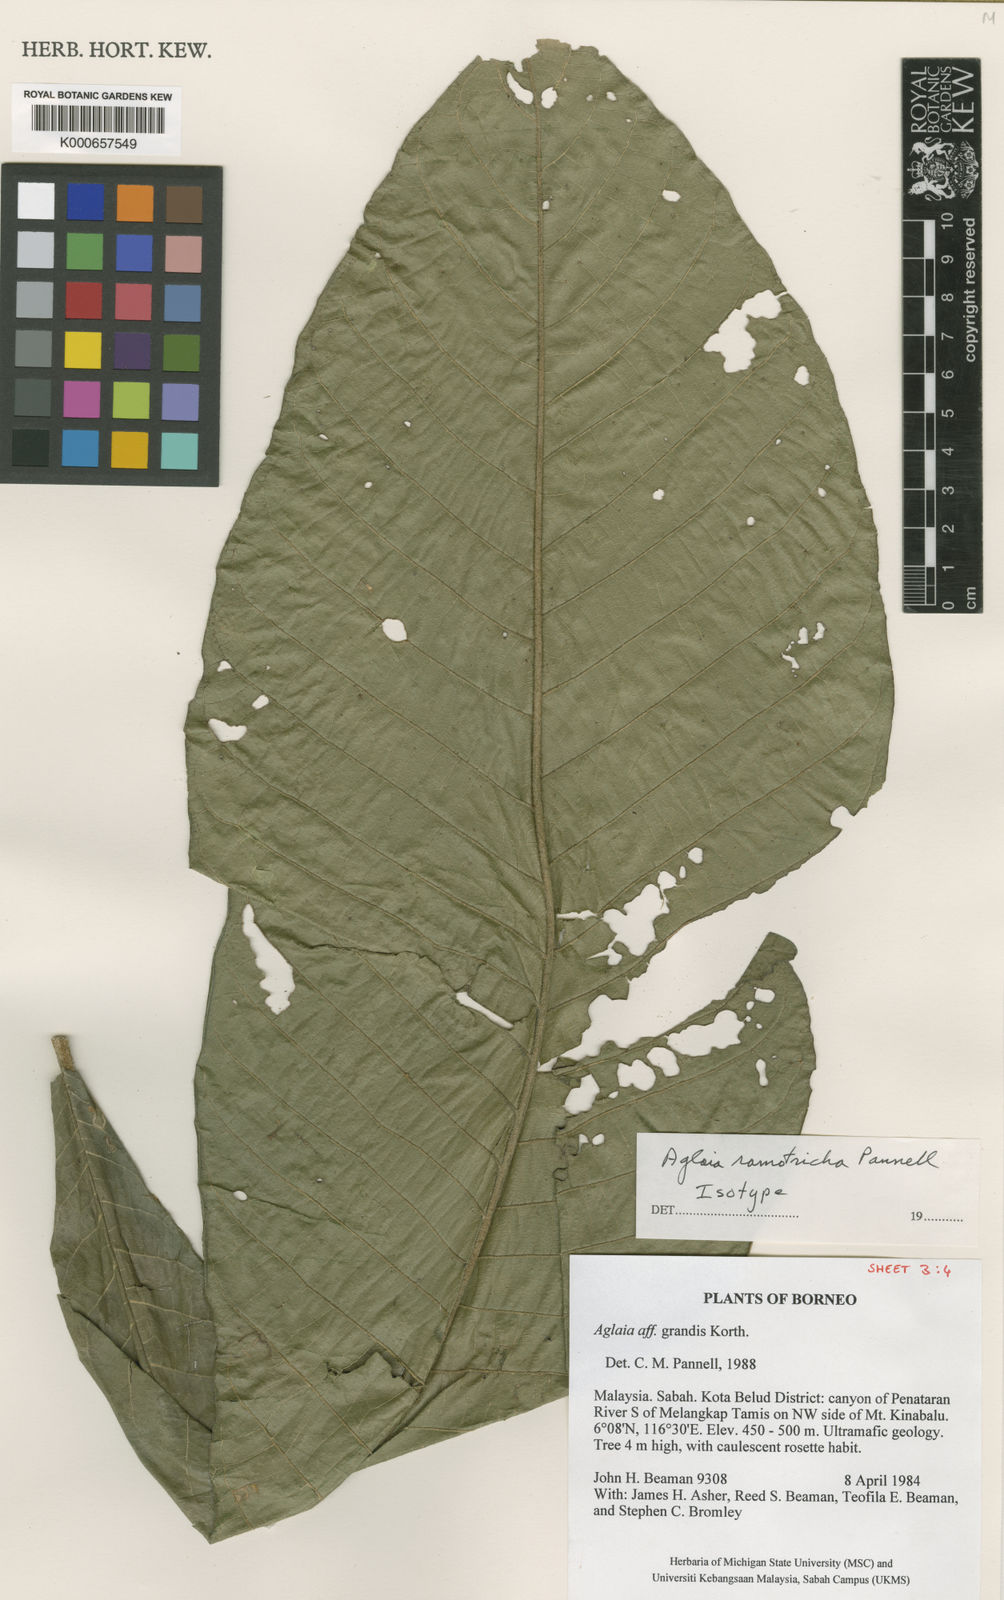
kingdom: Plantae
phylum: Tracheophyta
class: Magnoliopsida
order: Sapindales
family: Meliaceae
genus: Aglaia
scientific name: Aglaia ramotricha
